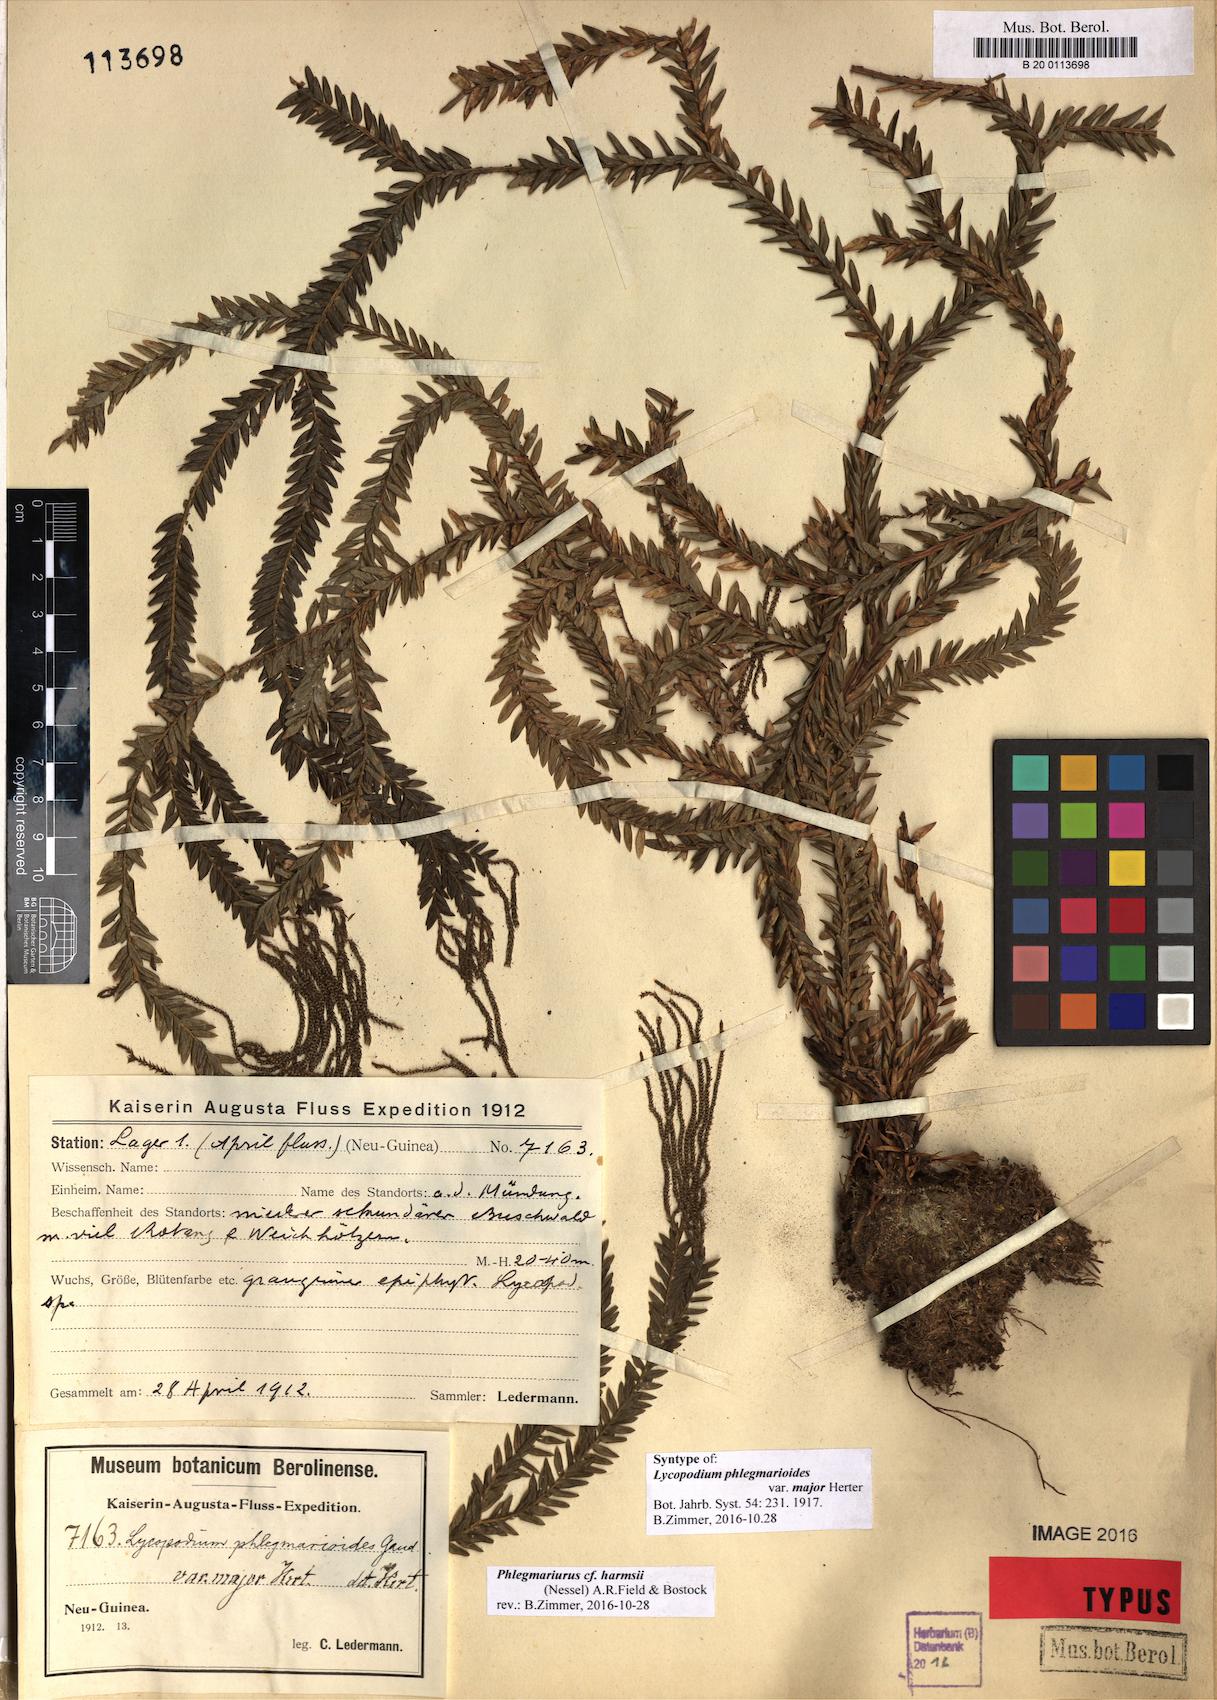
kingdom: Plantae
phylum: Tracheophyta
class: Lycopodiopsida
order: Lycopodiales
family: Lycopodiaceae
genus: Phlegmariurus
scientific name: Phlegmariurus harmsii
